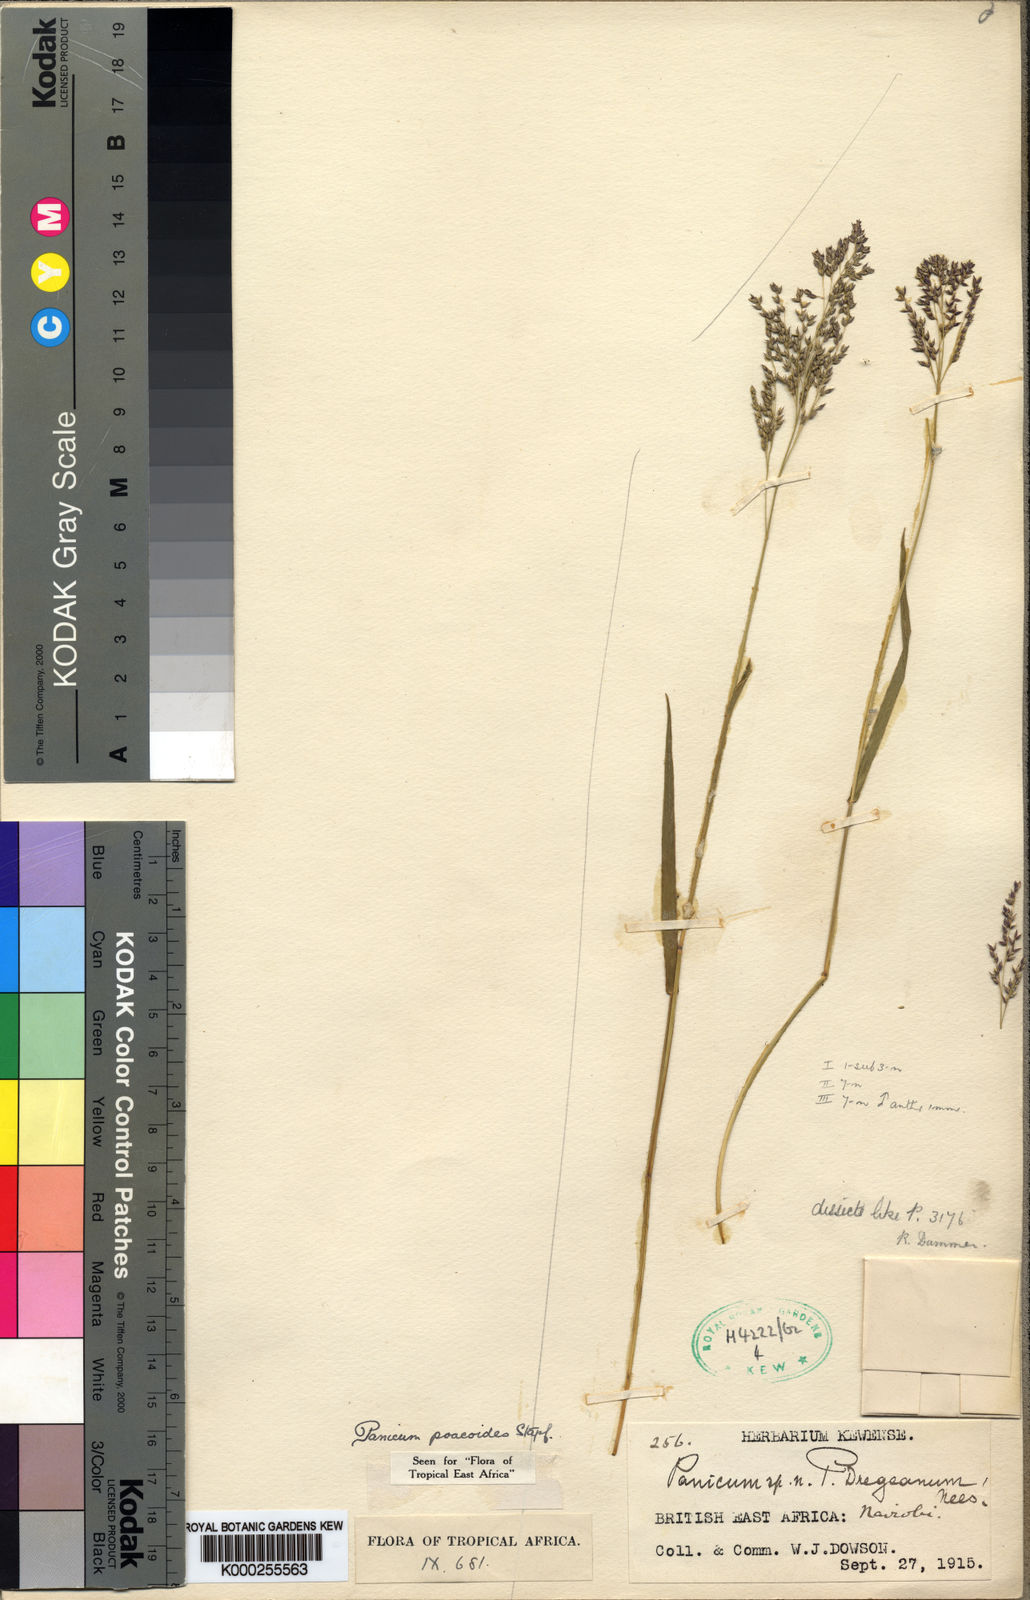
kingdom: Plantae
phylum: Tracheophyta
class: Liliopsida
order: Poales
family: Poaceae
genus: Panicum
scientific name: Panicum
